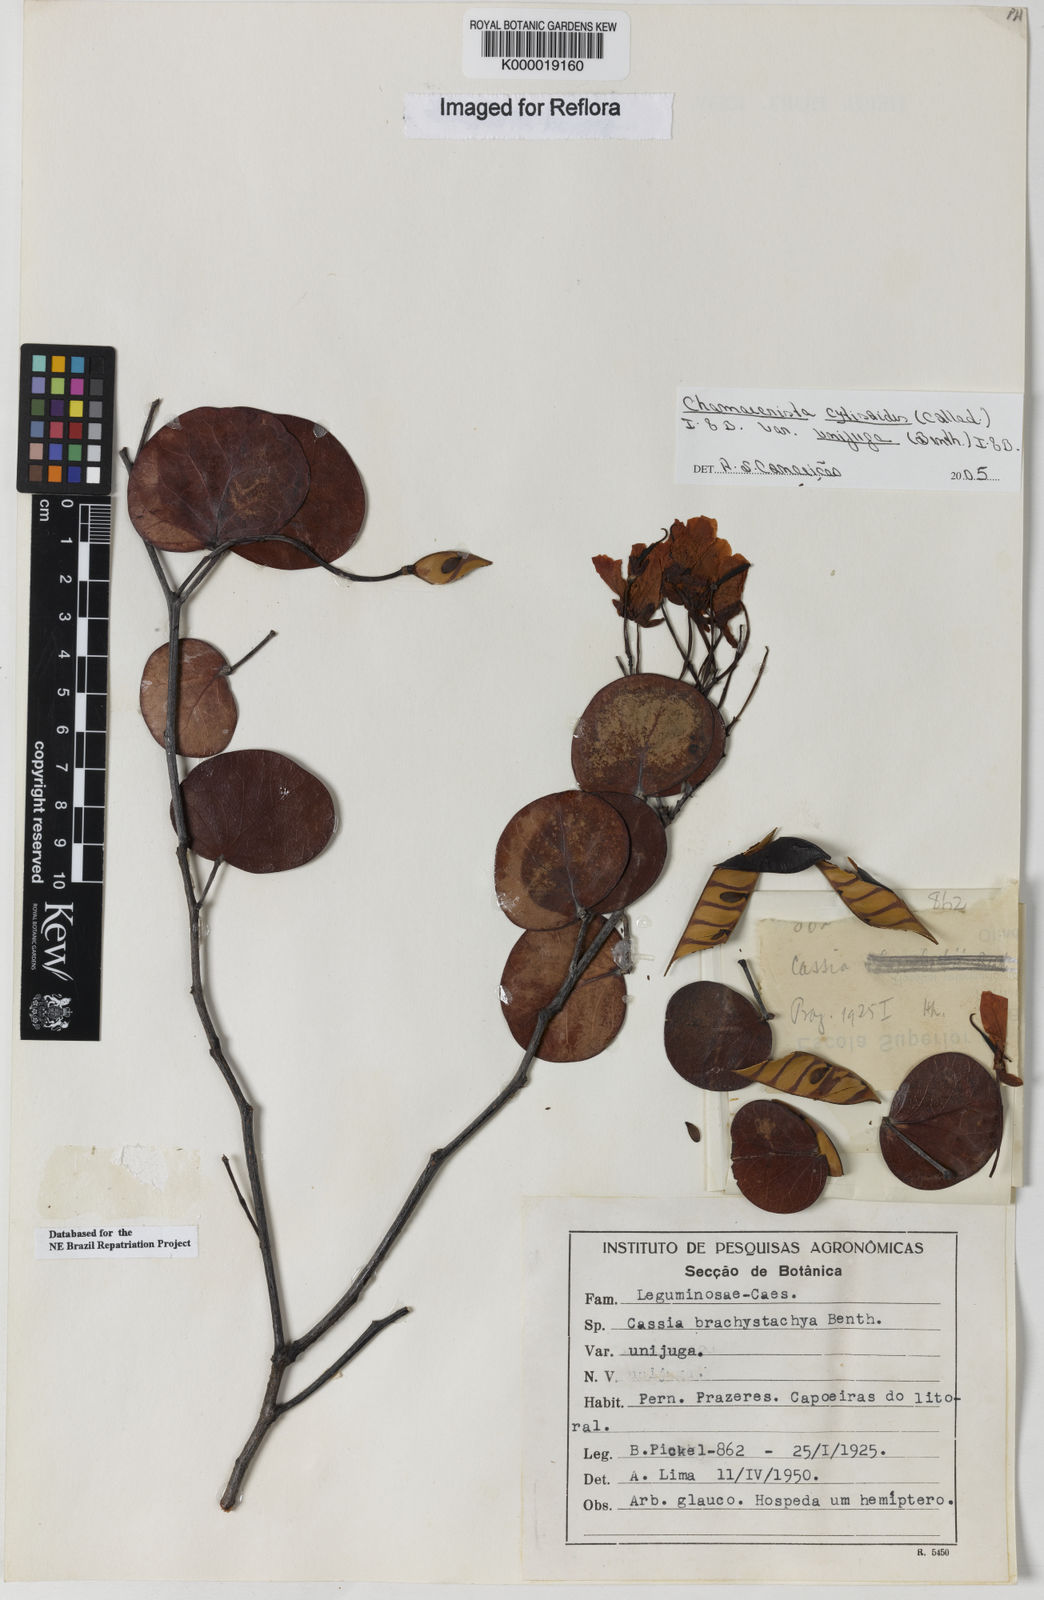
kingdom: Plantae
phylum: Tracheophyta
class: Magnoliopsida
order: Fabales
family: Fabaceae
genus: Chamaecrista
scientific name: Chamaecrista cytisoides
